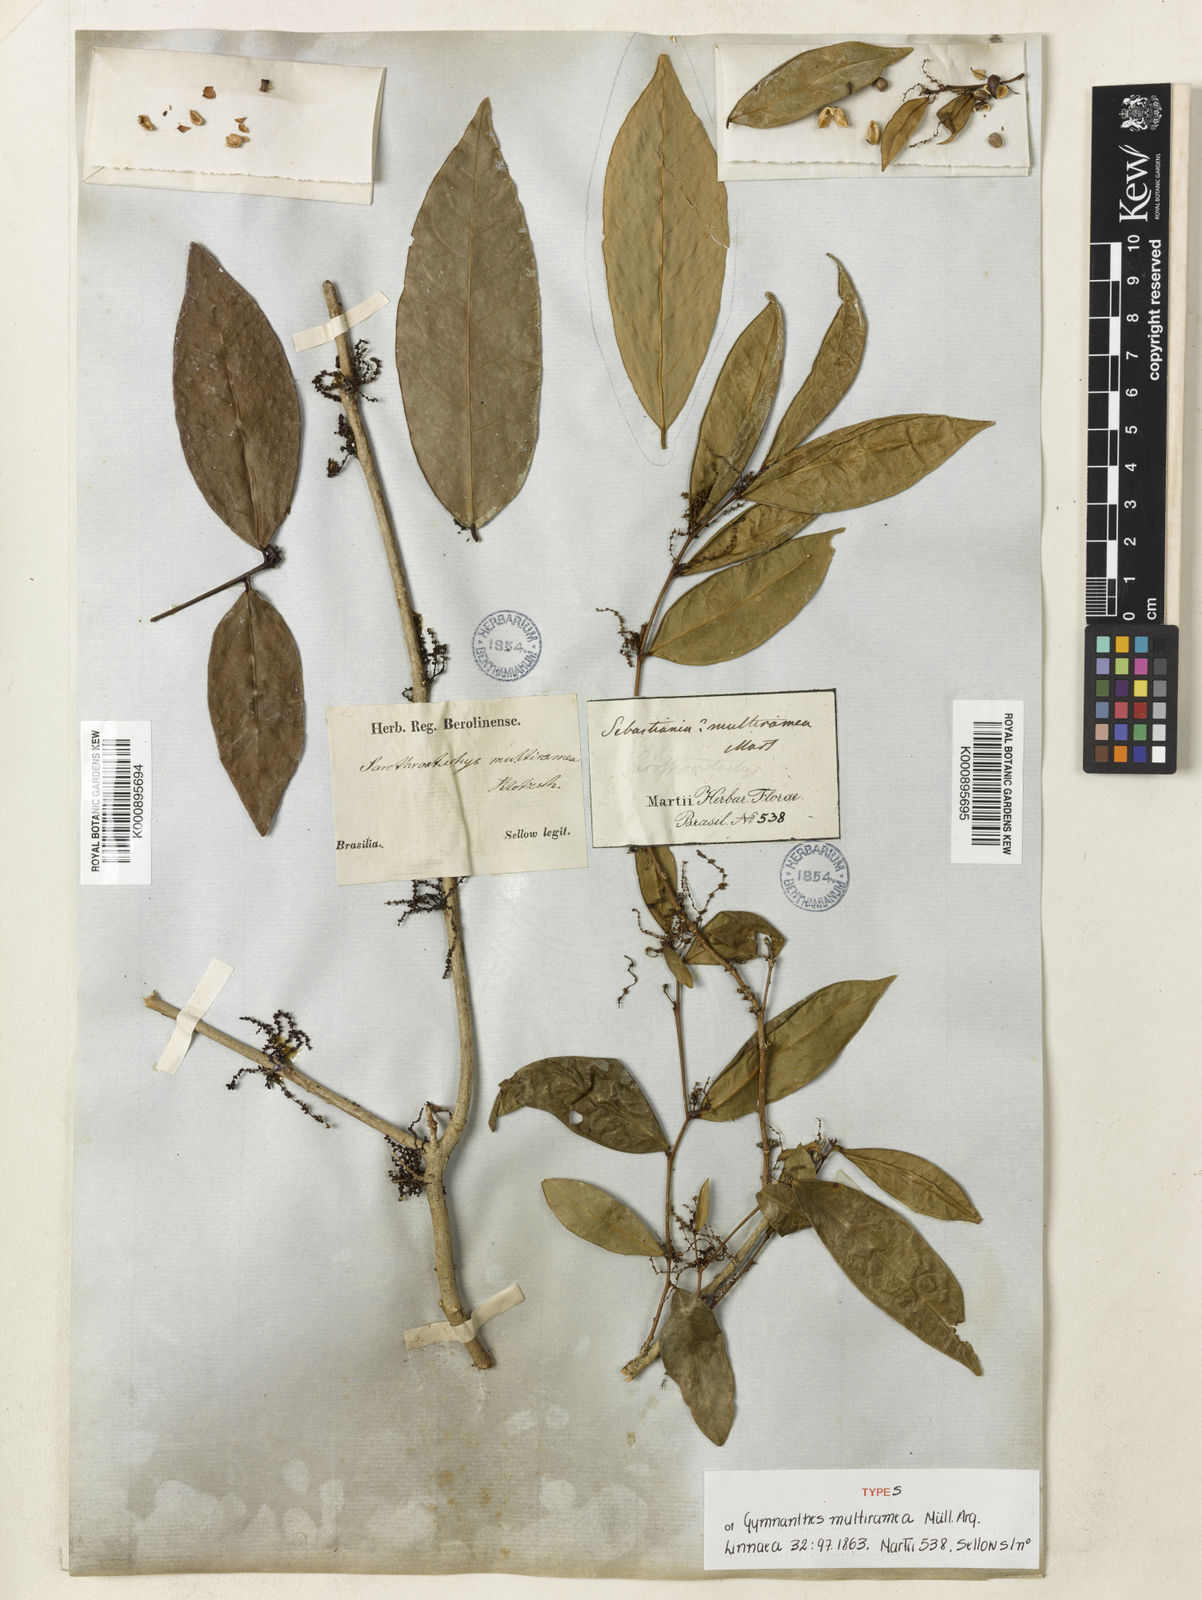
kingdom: Plantae
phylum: Tracheophyta
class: Magnoliopsida
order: Malpighiales
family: Euphorbiaceae
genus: Gymnanthes
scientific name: Gymnanthes glabrata
